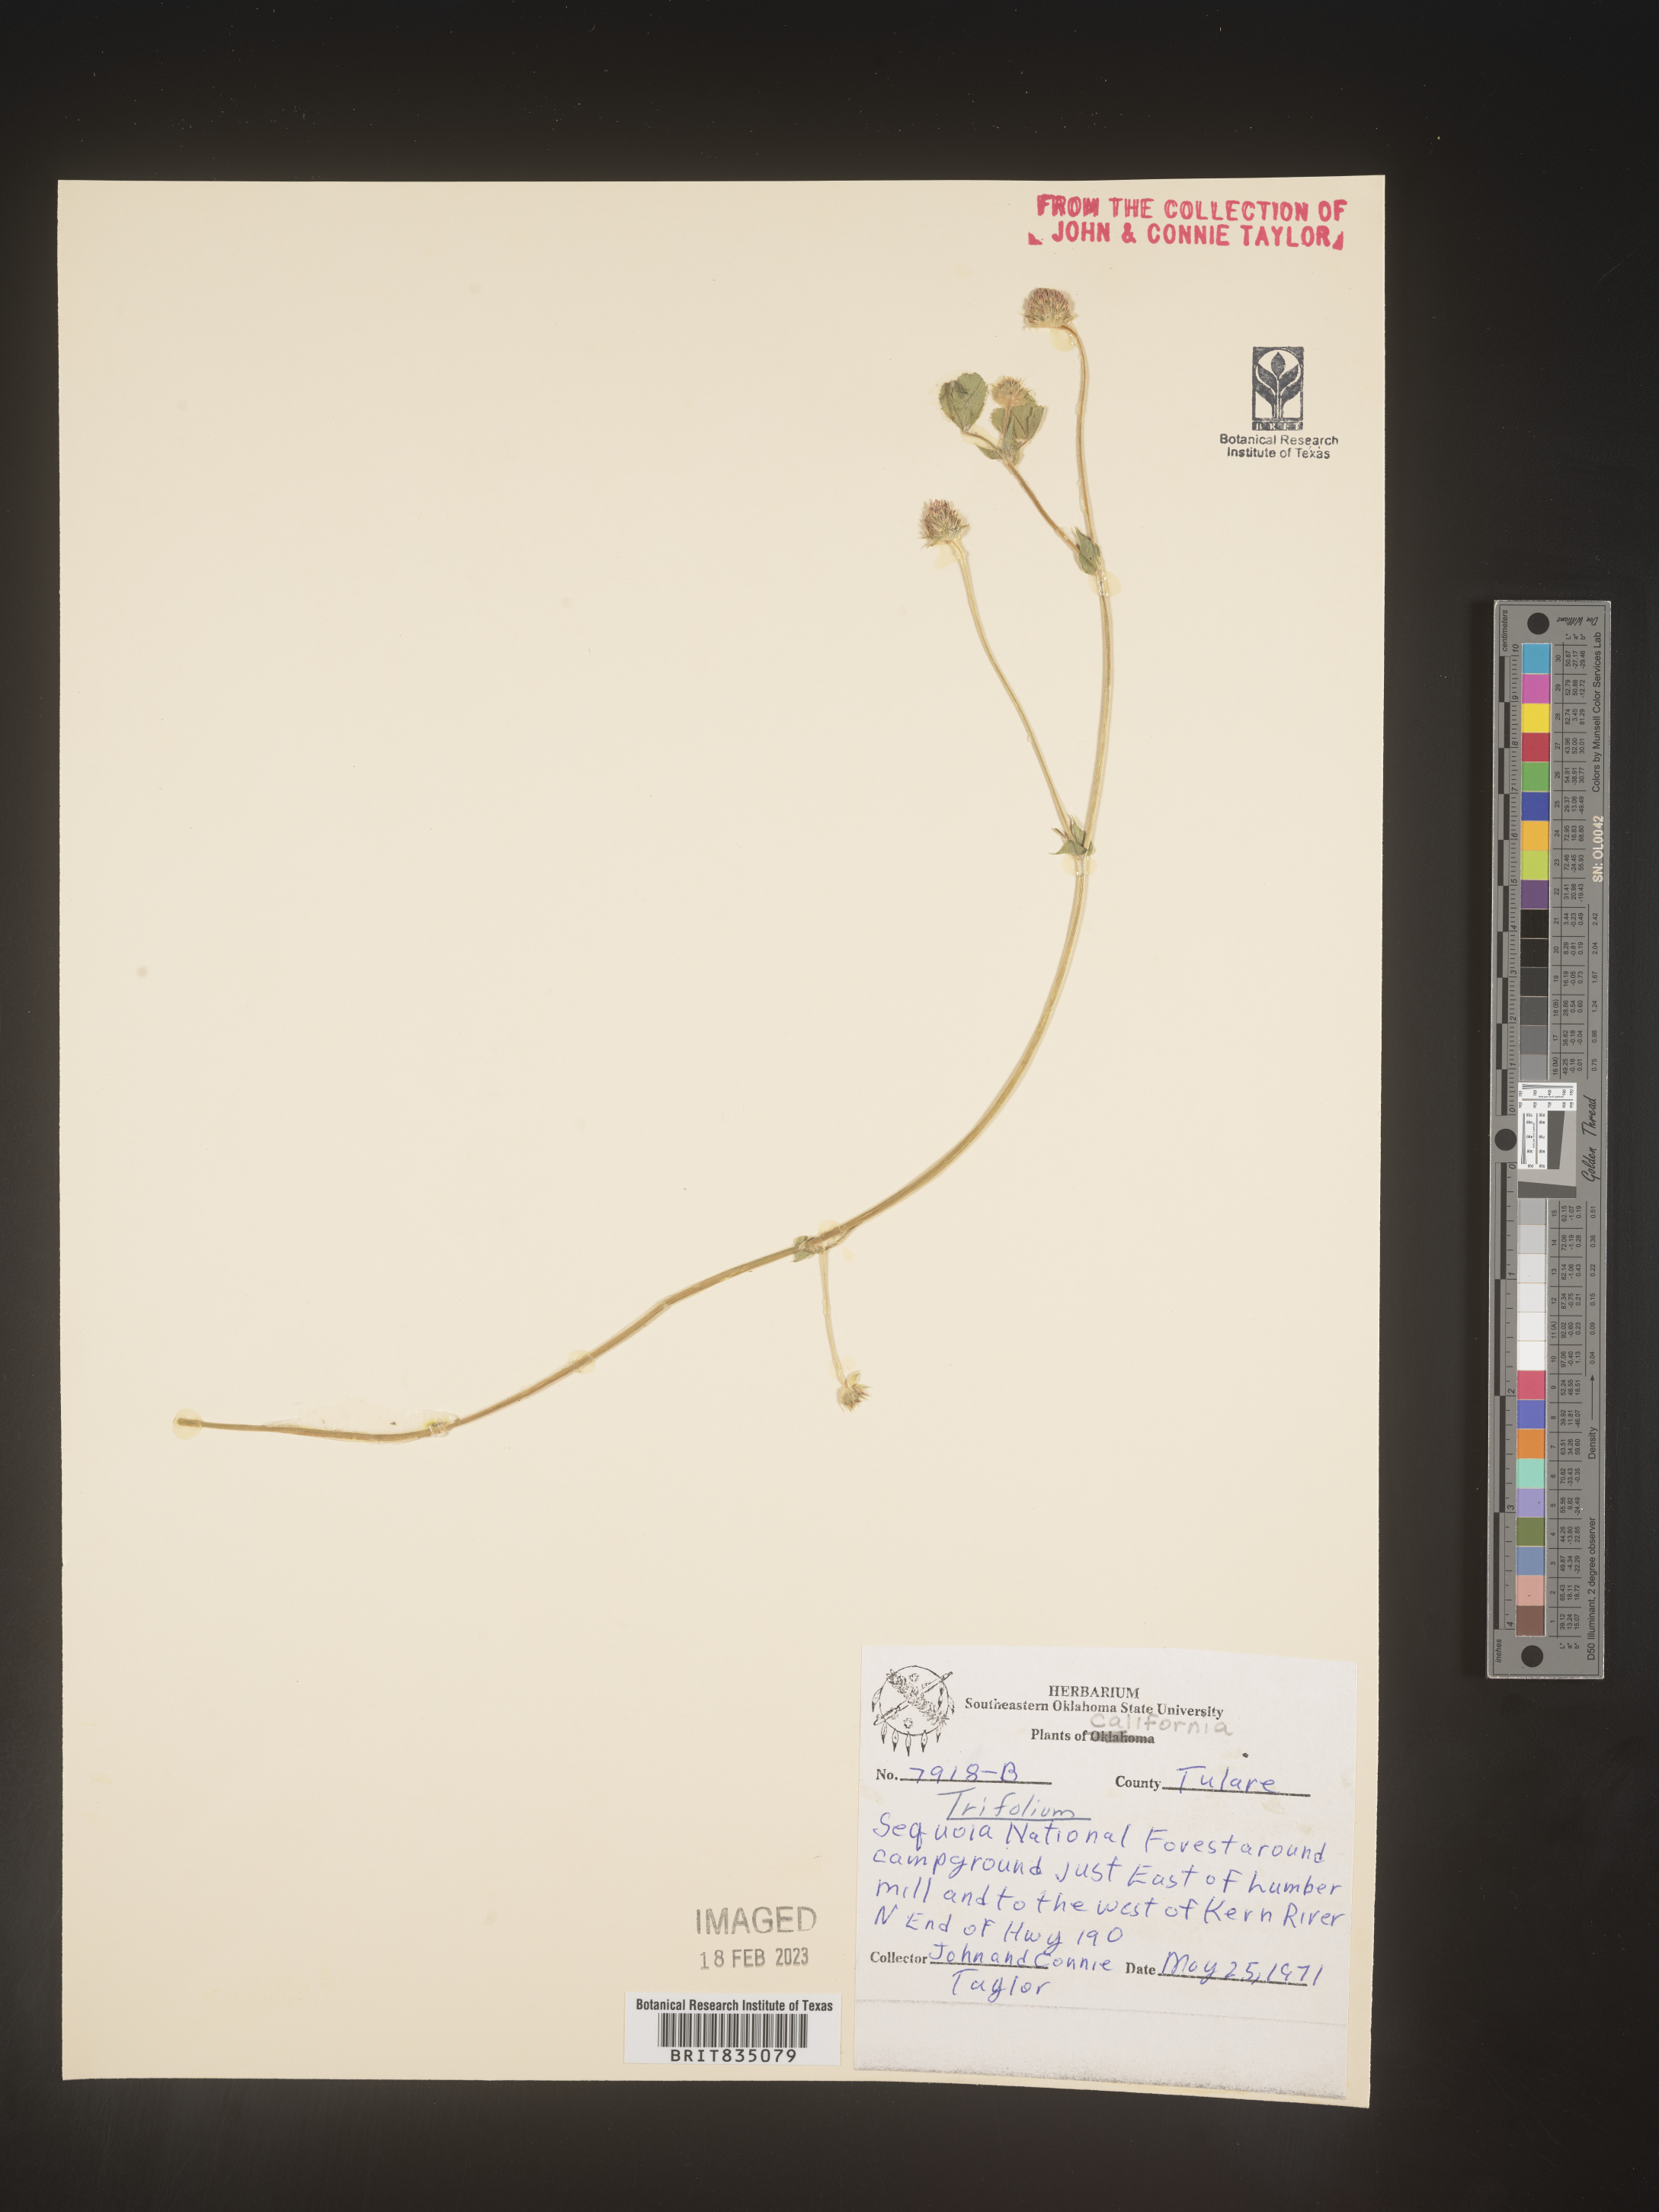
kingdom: Plantae
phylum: Tracheophyta
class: Magnoliopsida
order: Fabales
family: Fabaceae
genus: Trifolium
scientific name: Trifolium
